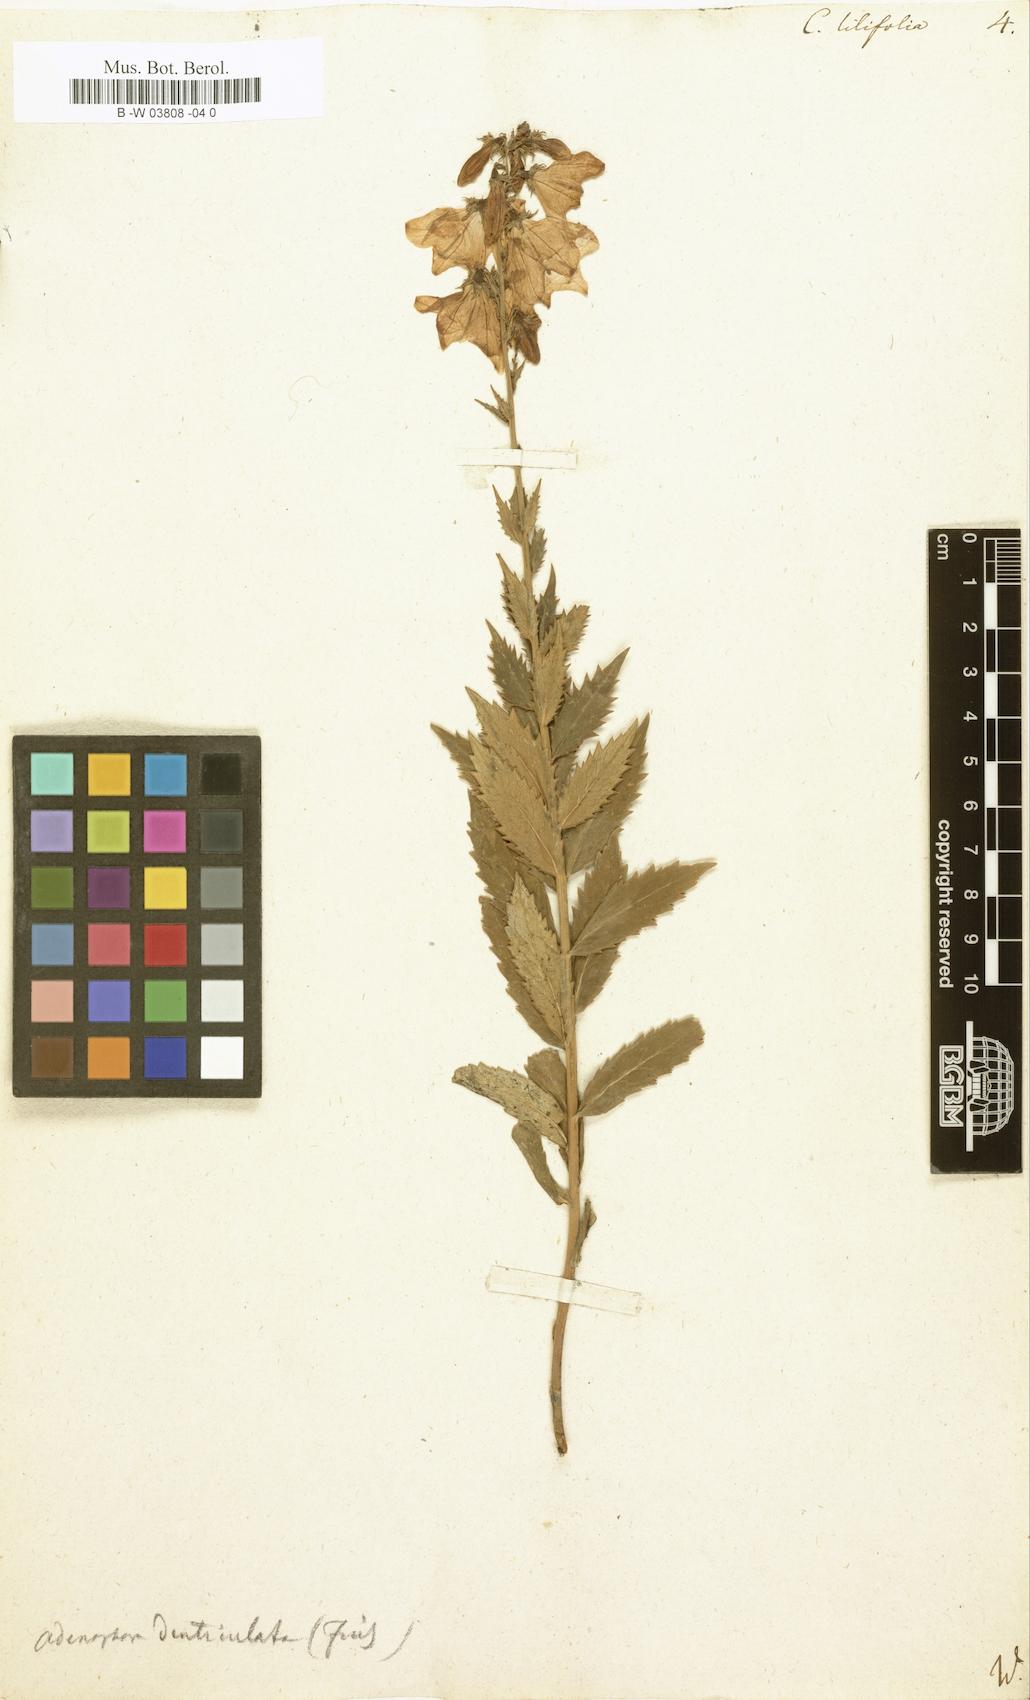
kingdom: Plantae
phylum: Tracheophyta
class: Magnoliopsida
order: Asterales
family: Campanulaceae
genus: Campanula
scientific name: Campanula lilifolia
